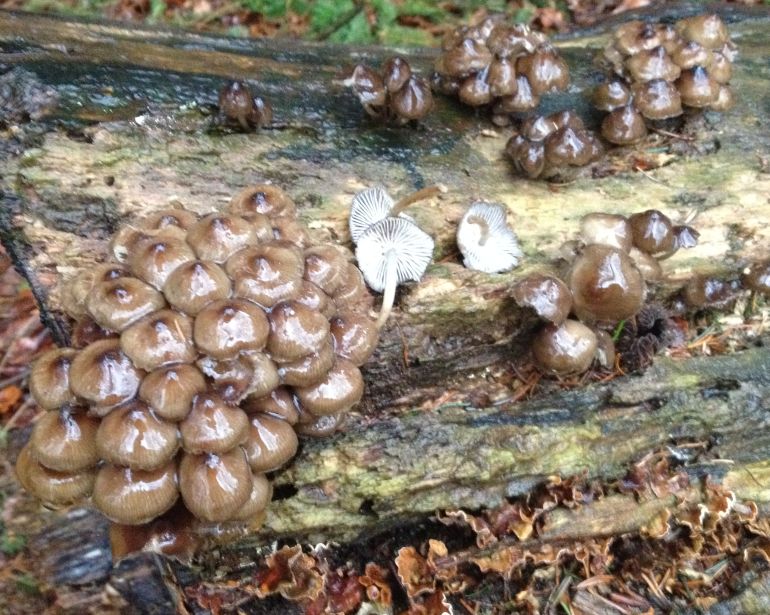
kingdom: Fungi
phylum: Basidiomycota
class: Agaricomycetes
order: Agaricales
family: Mycenaceae
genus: Mycena
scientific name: Mycena tintinnabulum
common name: vinter-huesvamp
